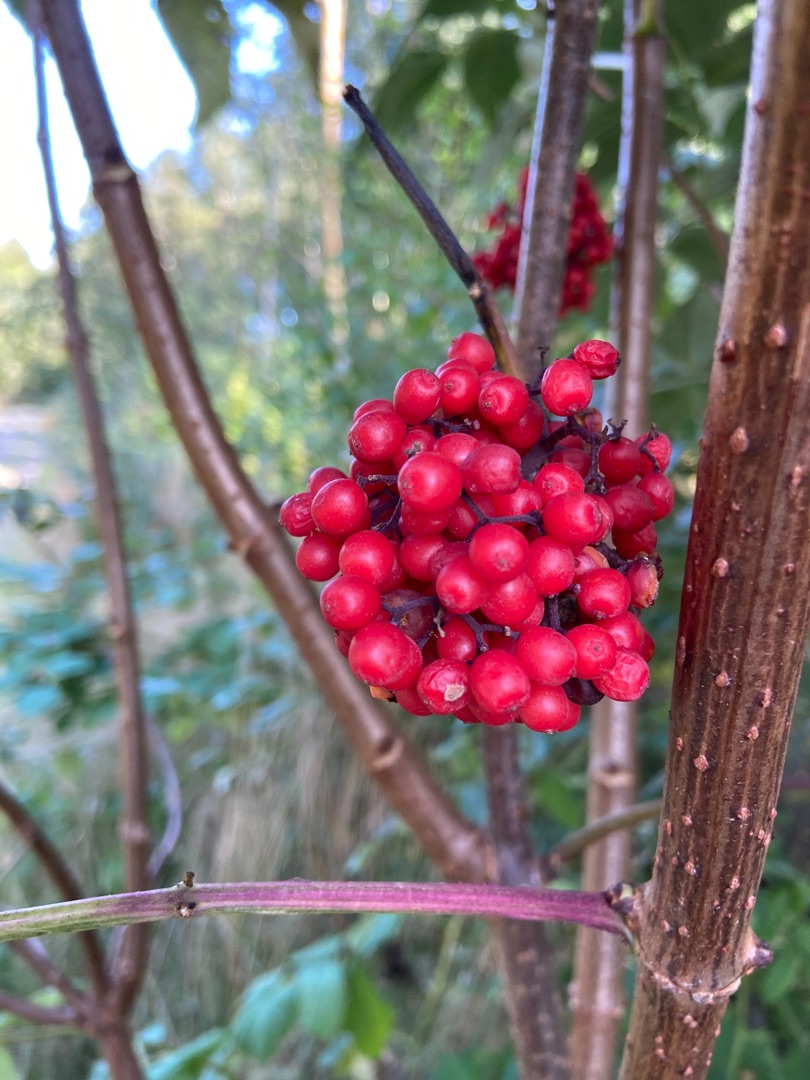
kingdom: Plantae
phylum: Tracheophyta
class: Magnoliopsida
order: Dipsacales
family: Viburnaceae
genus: Sambucus
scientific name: Sambucus racemosa
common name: Drue-hyld
